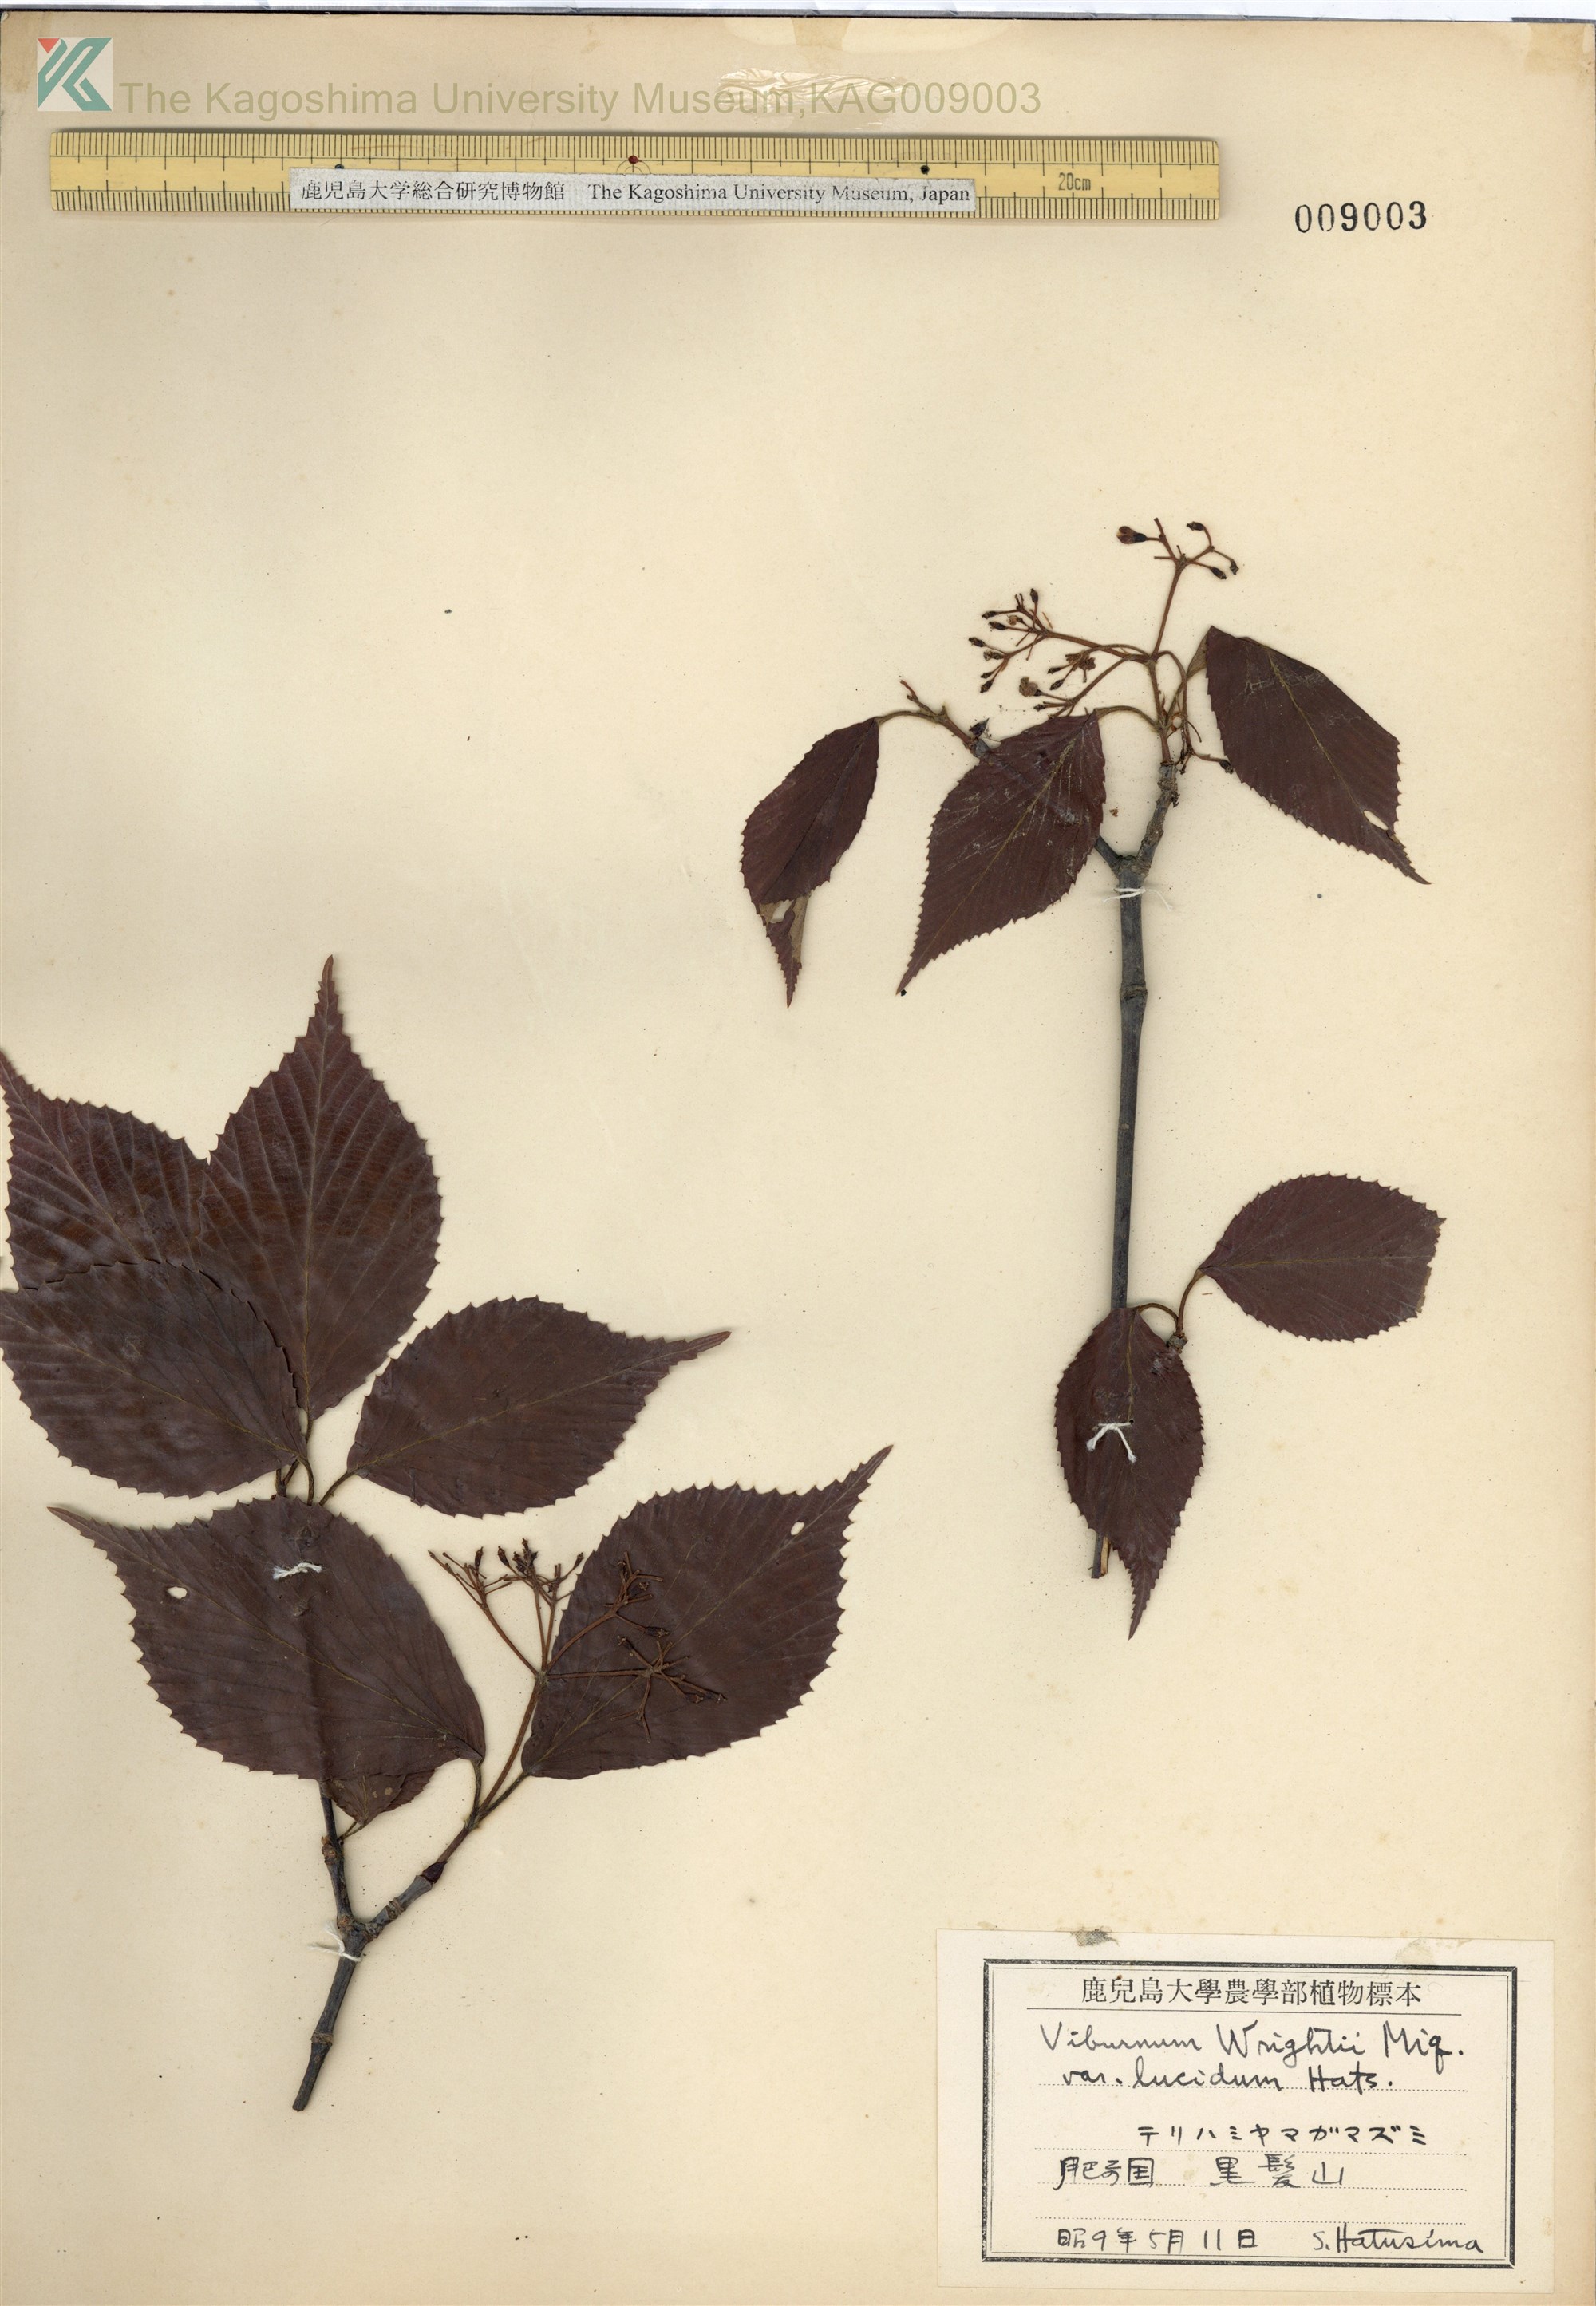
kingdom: Plantae
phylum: Tracheophyta
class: Magnoliopsida
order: Dipsacales
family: Viburnaceae
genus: Viburnum
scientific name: Viburnum wrightii
